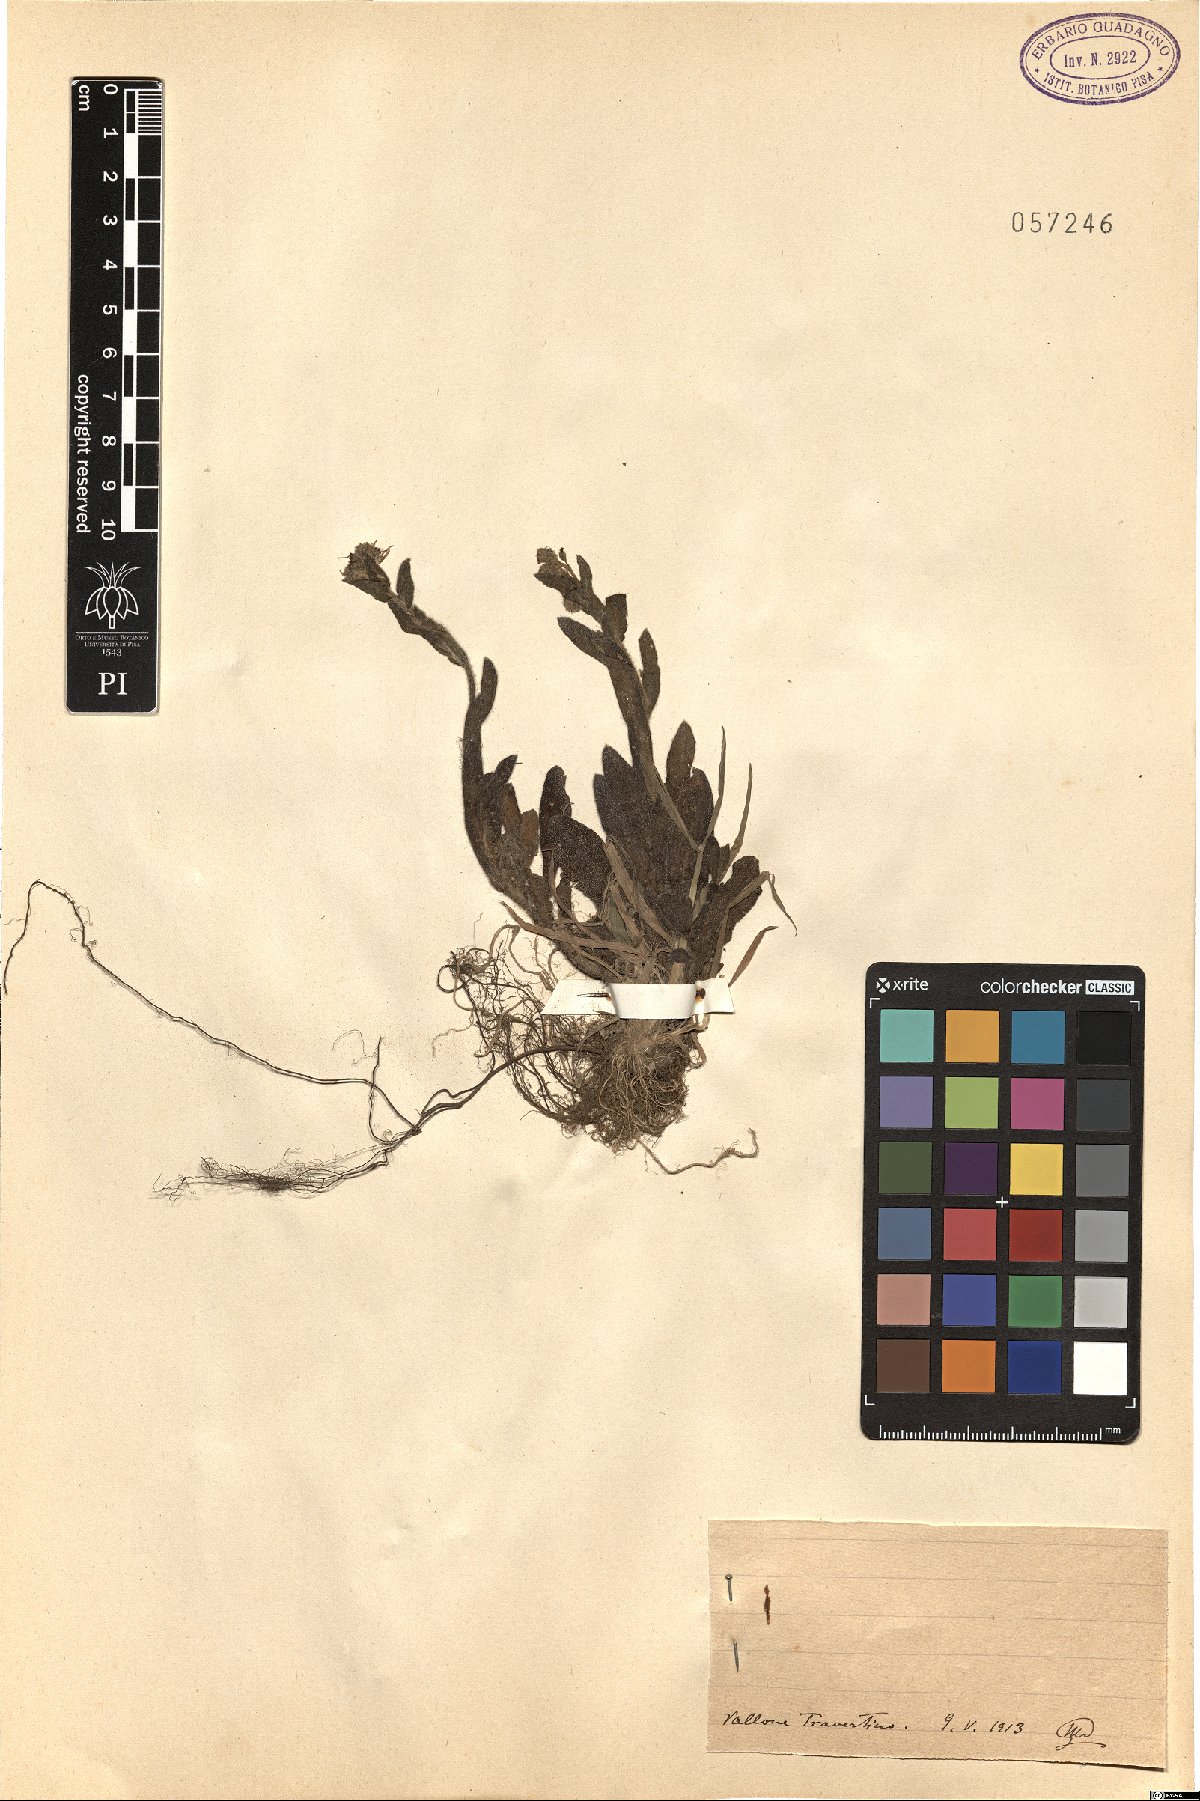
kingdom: Plantae
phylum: Tracheophyta
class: Magnoliopsida
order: Boraginales
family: Boraginaceae
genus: Myosotis
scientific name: Myosotis
